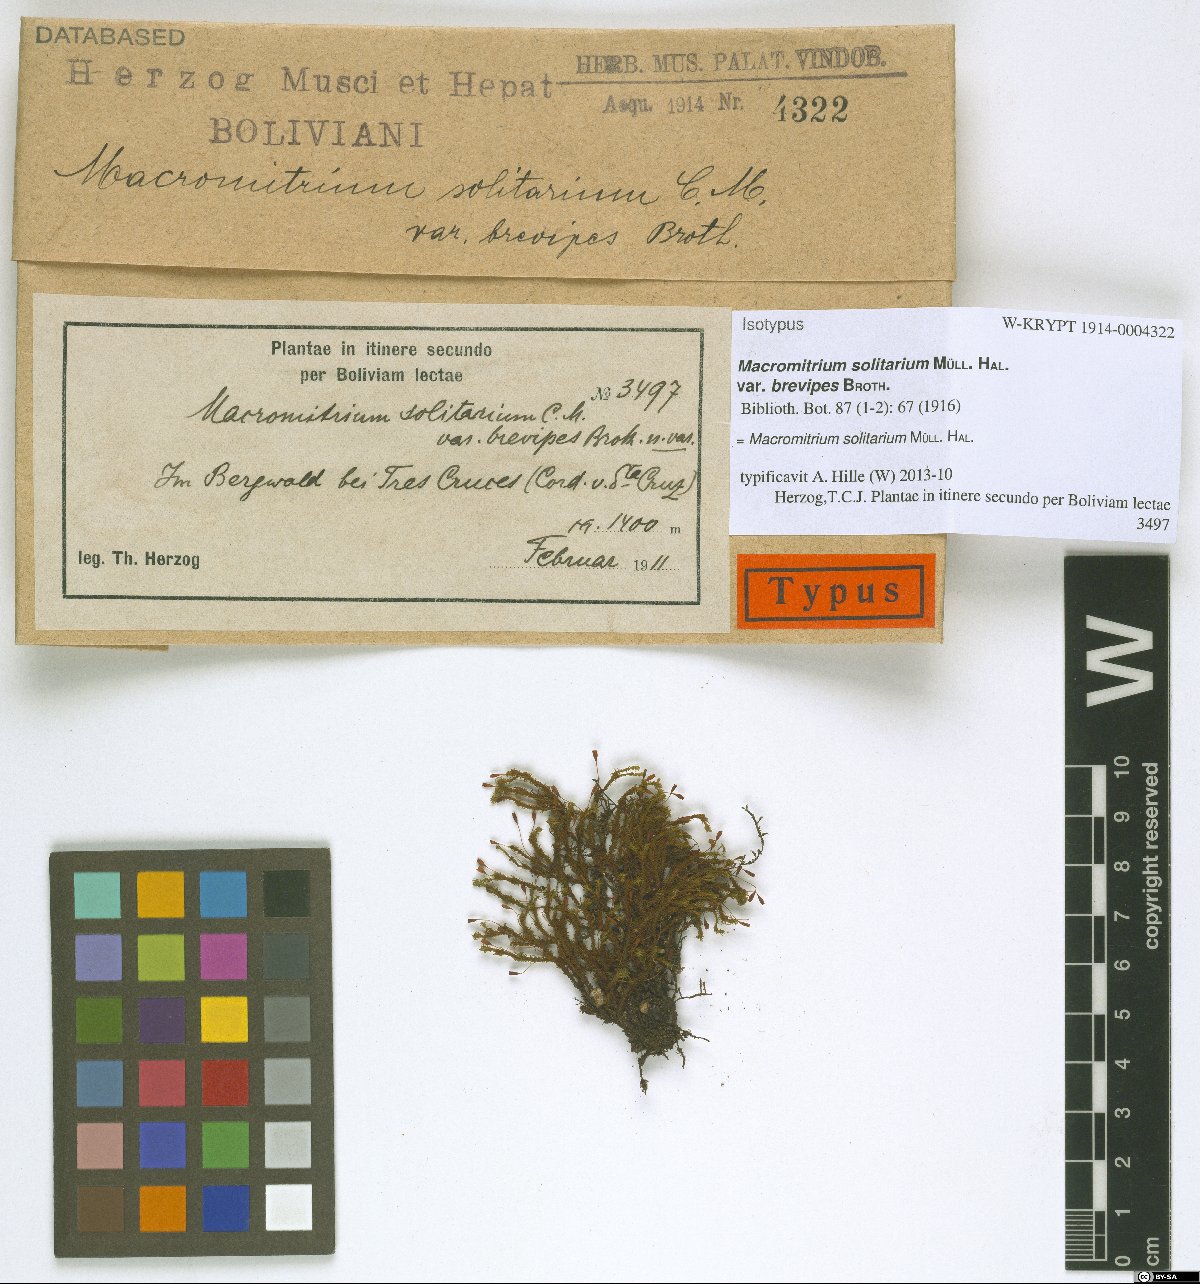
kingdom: Plantae
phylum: Bryophyta
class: Bryopsida
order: Orthotrichales
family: Orthotrichaceae
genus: Macromitrium
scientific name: Macromitrium solitarium
